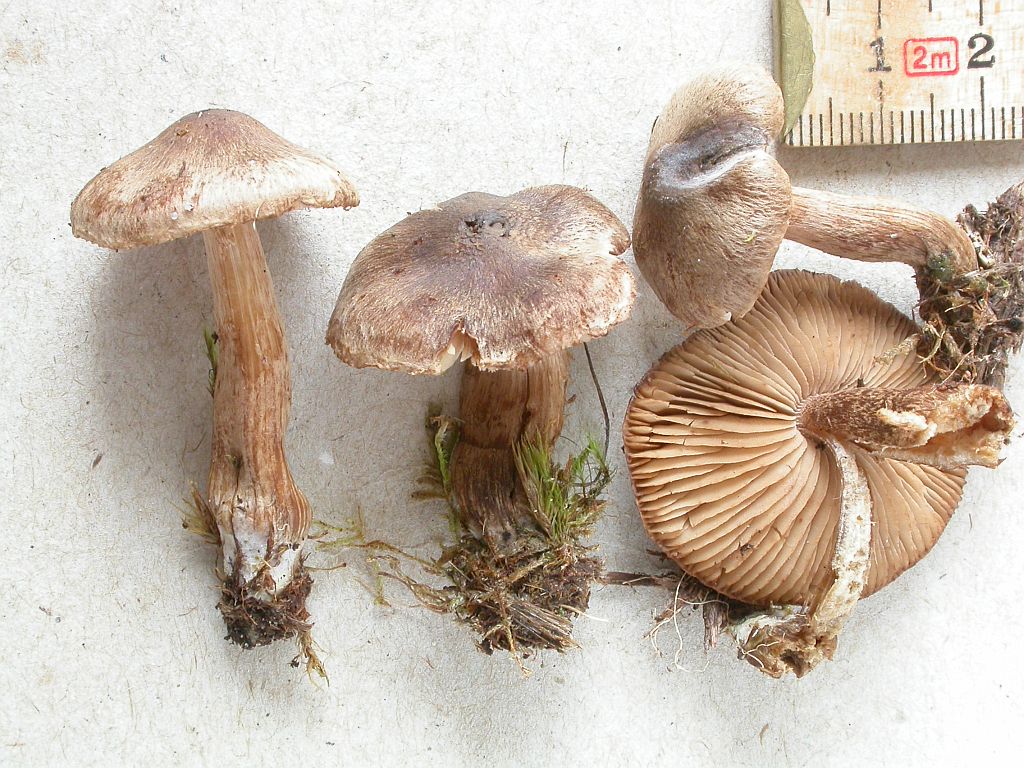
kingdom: Fungi
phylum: Basidiomycota
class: Agaricomycetes
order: Agaricales
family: Inocybaceae
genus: Inocybe
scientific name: Inocybe soluta
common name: lysbladet trævlhat
